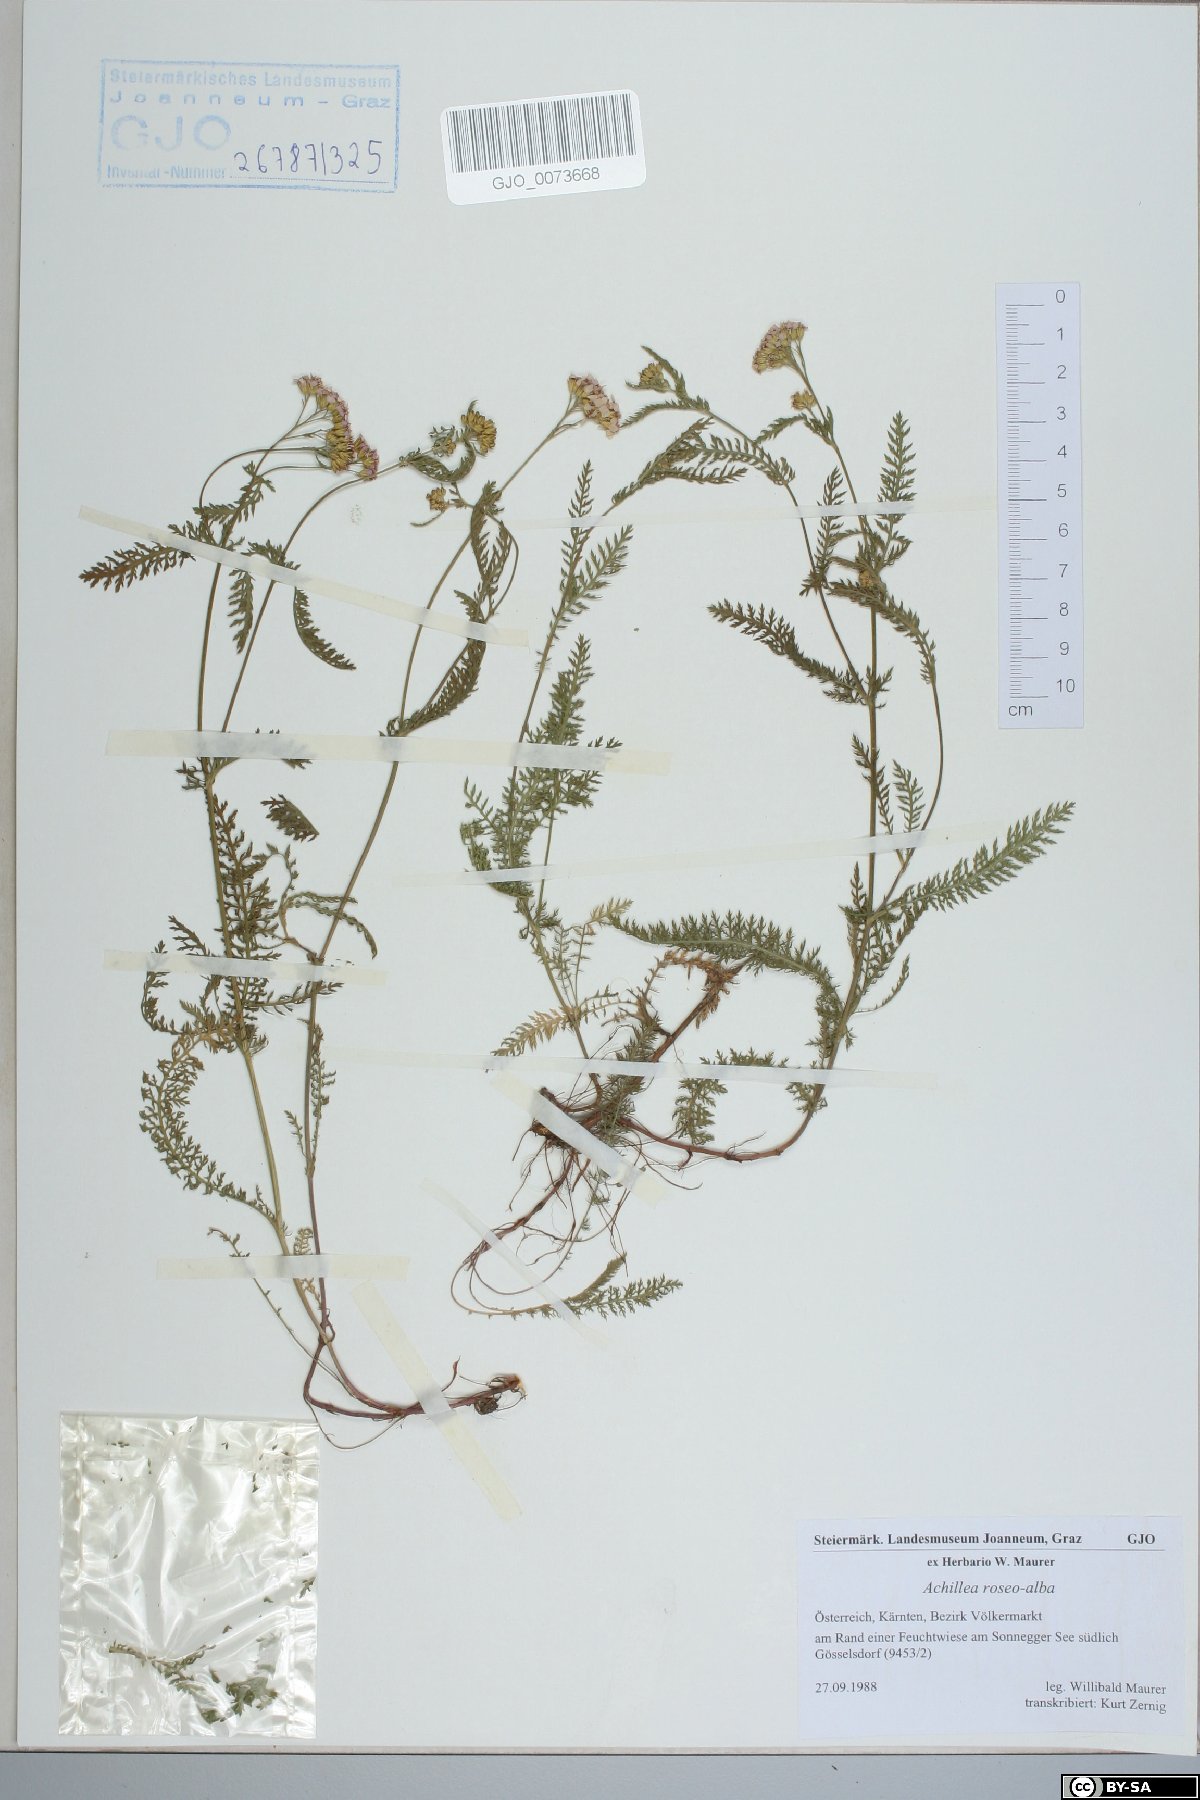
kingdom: Plantae
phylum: Tracheophyta
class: Magnoliopsida
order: Asterales
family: Asteraceae
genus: Achillea
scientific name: Achillea roseoalba
